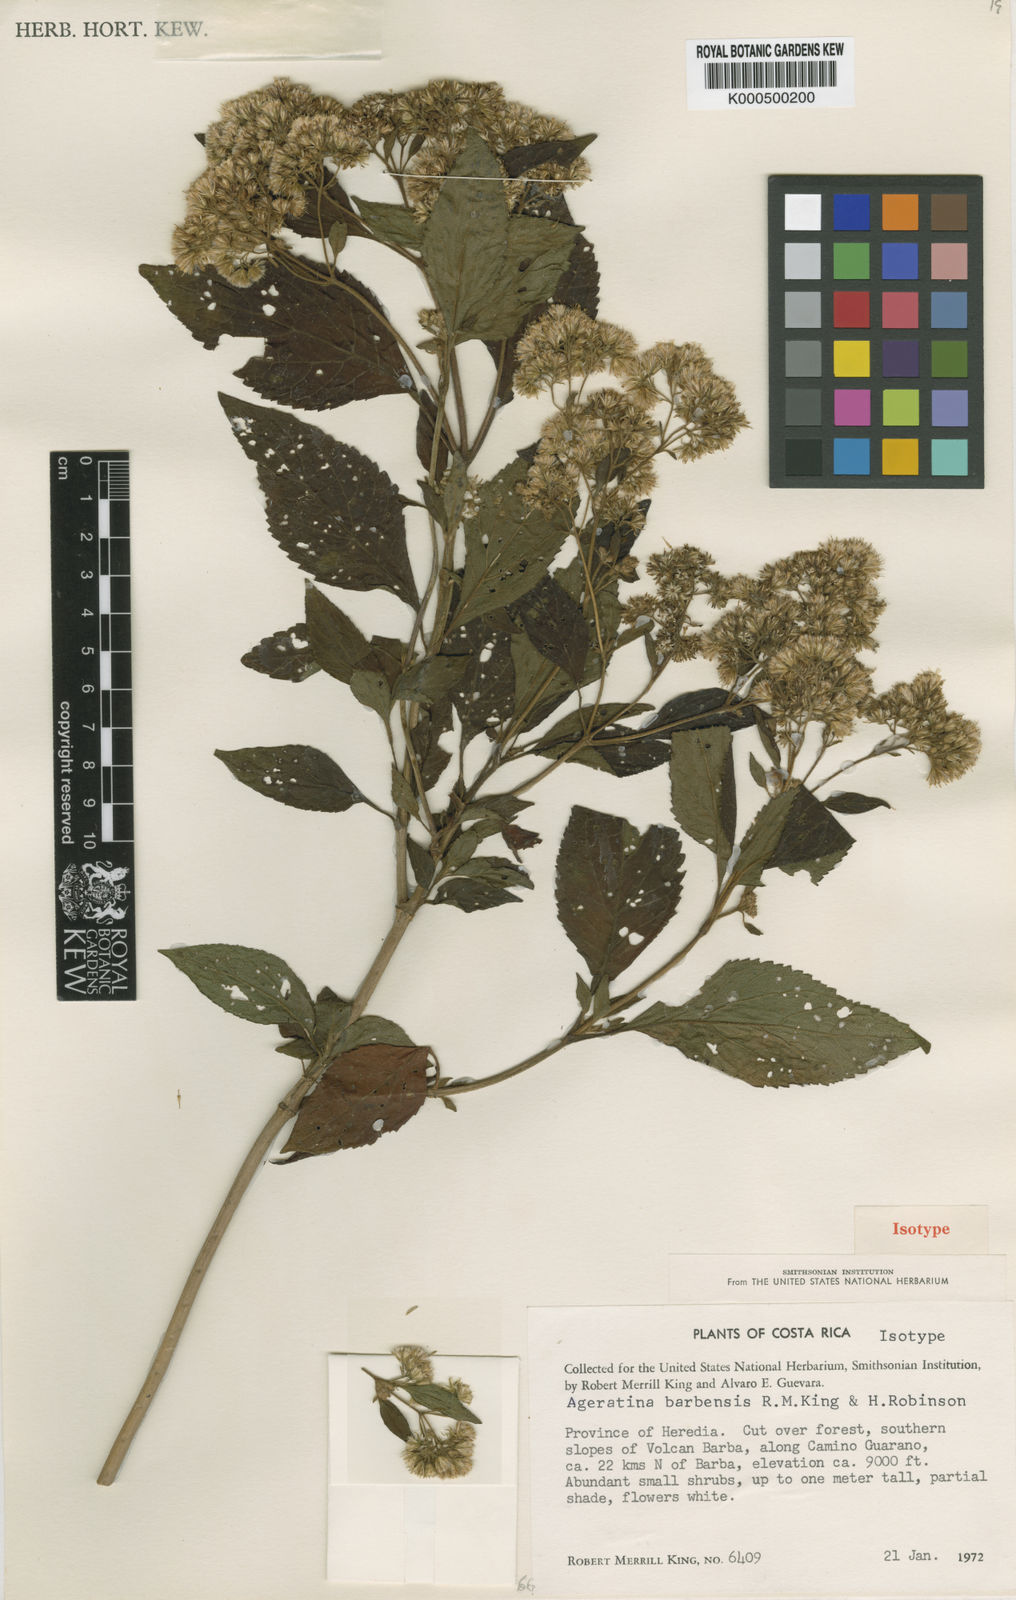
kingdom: Plantae
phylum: Tracheophyta
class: Magnoliopsida
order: Asterales
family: Asteraceae
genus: Ageratina
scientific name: Ageratina badia
